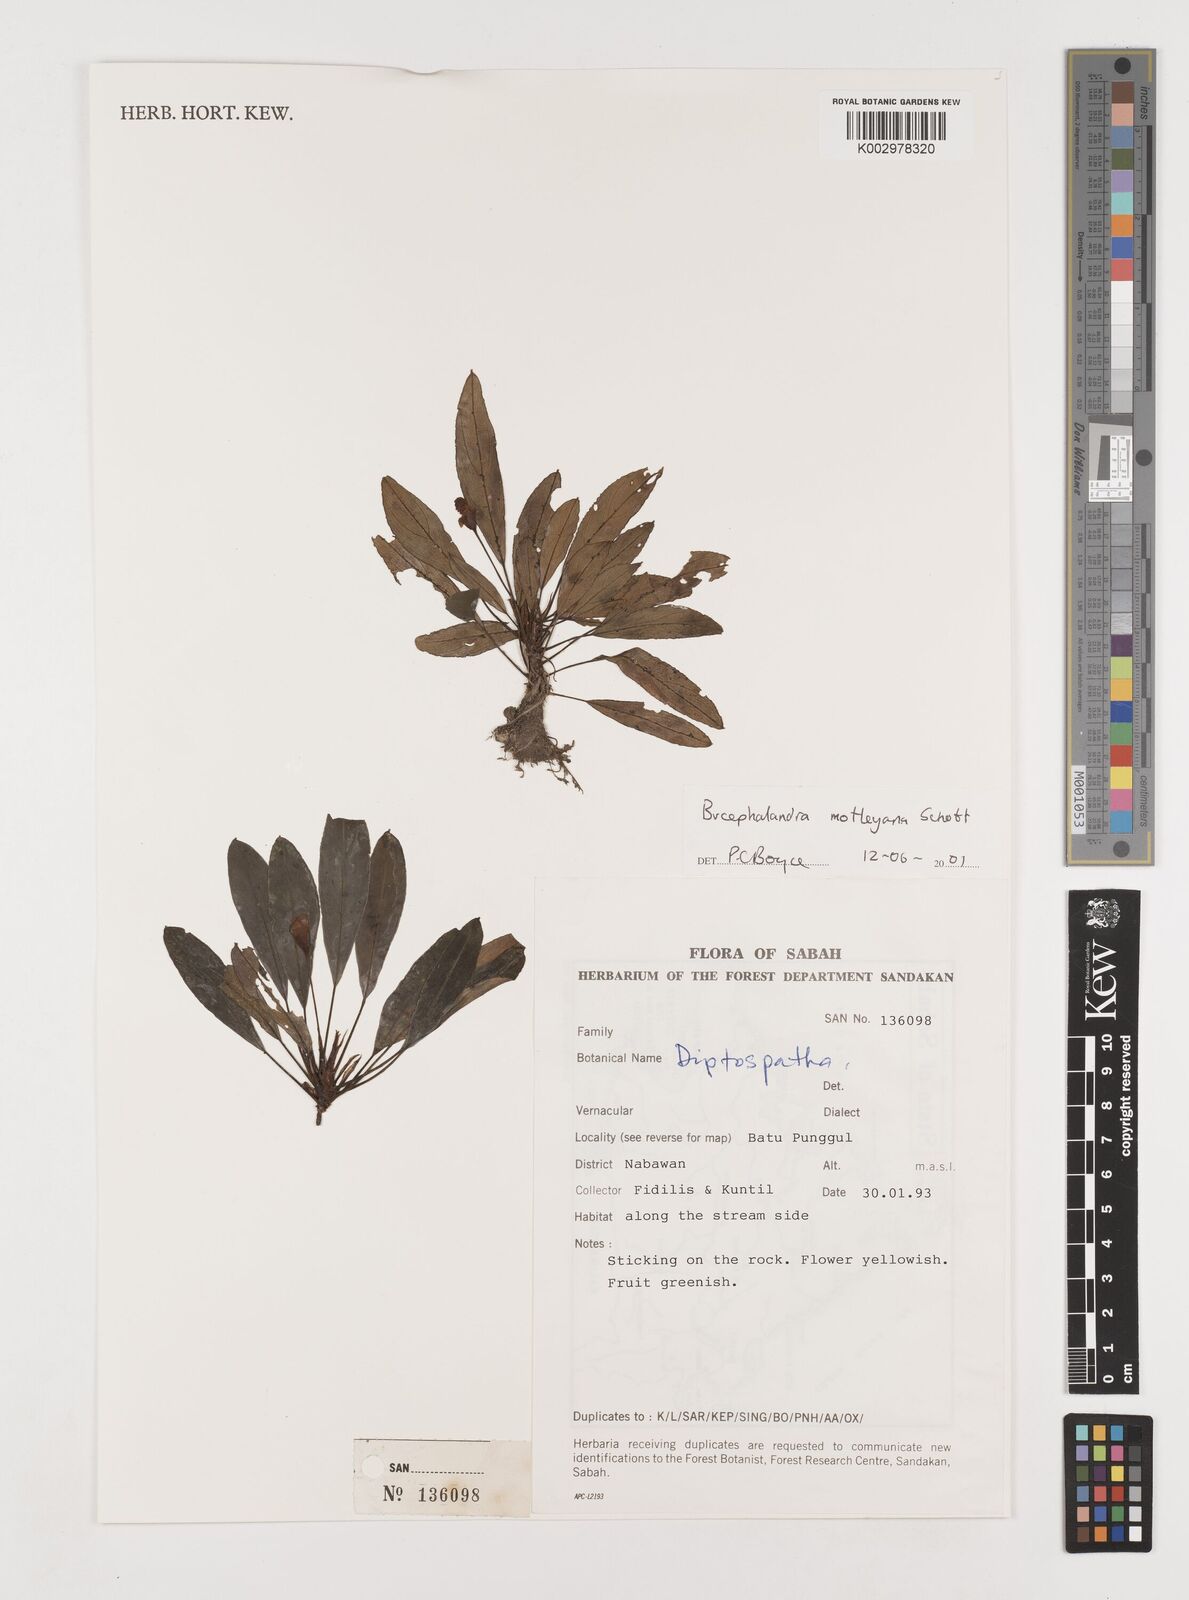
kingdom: Plantae
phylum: Tracheophyta
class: Liliopsida
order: Alismatales
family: Araceae
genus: Bucephalandra
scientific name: Bucephalandra motleyana
